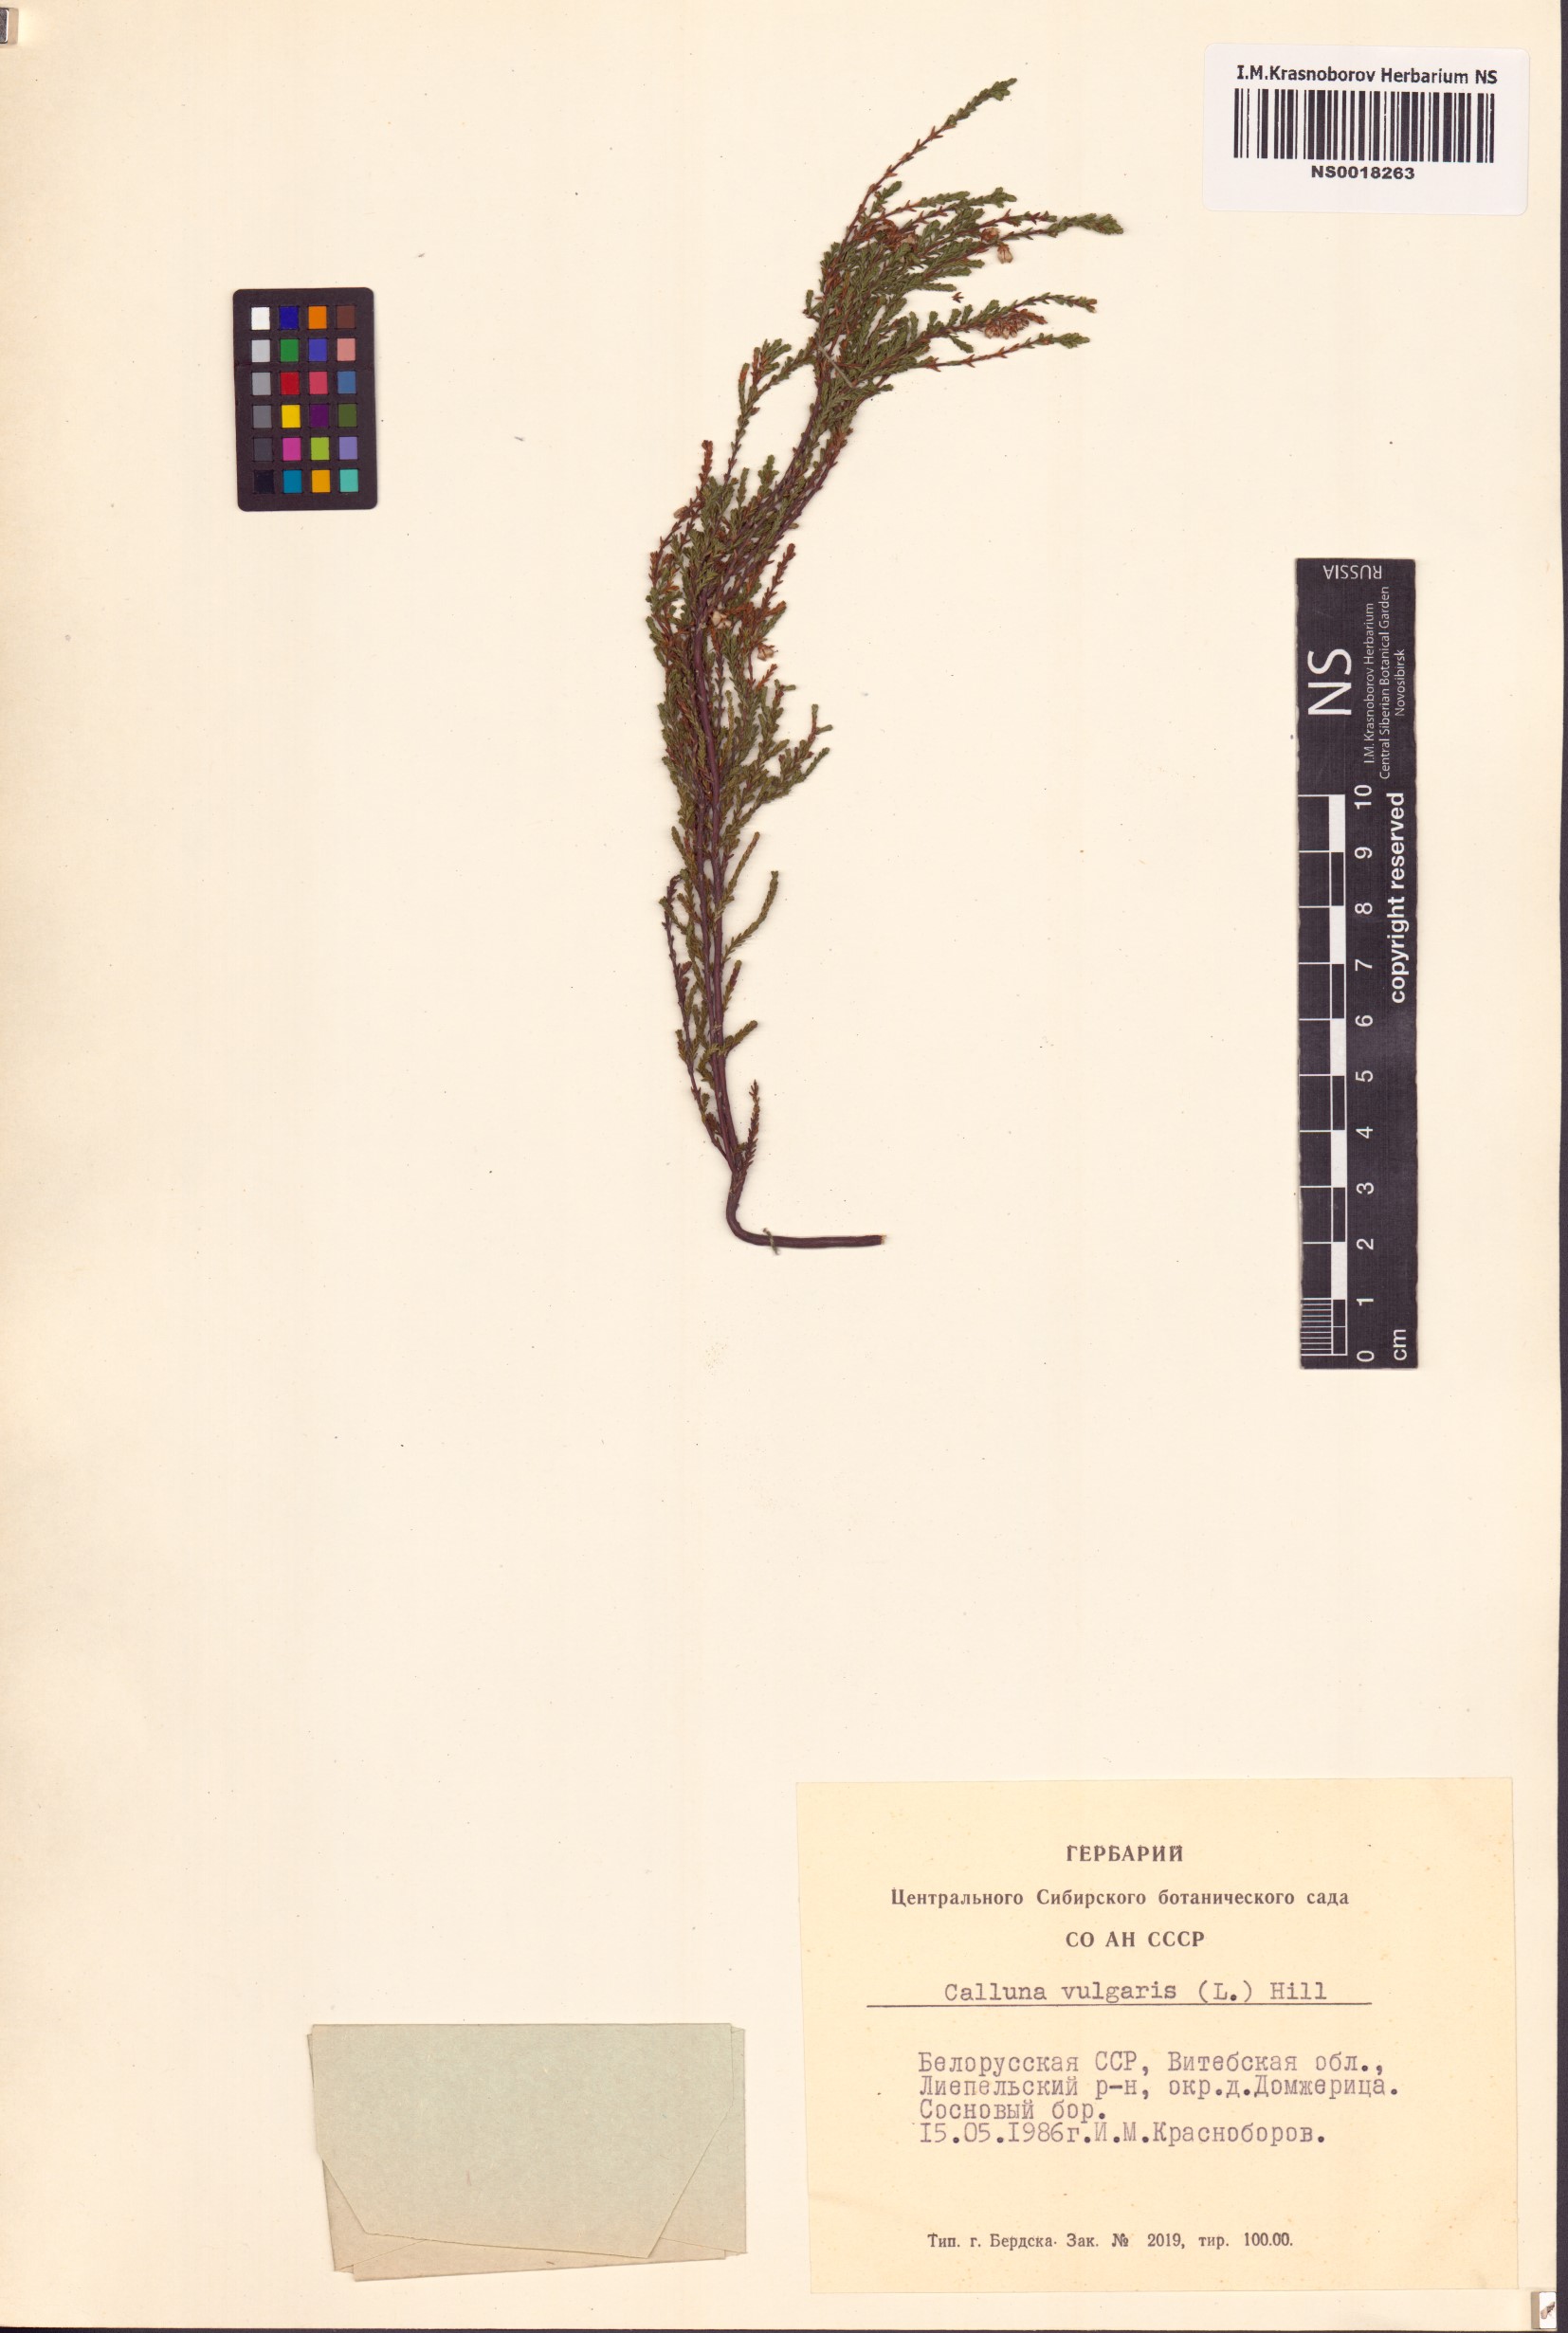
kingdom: Plantae
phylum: Tracheophyta
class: Magnoliopsida
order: Ericales
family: Ericaceae
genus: Calluna
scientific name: Calluna vulgaris
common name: Heather
